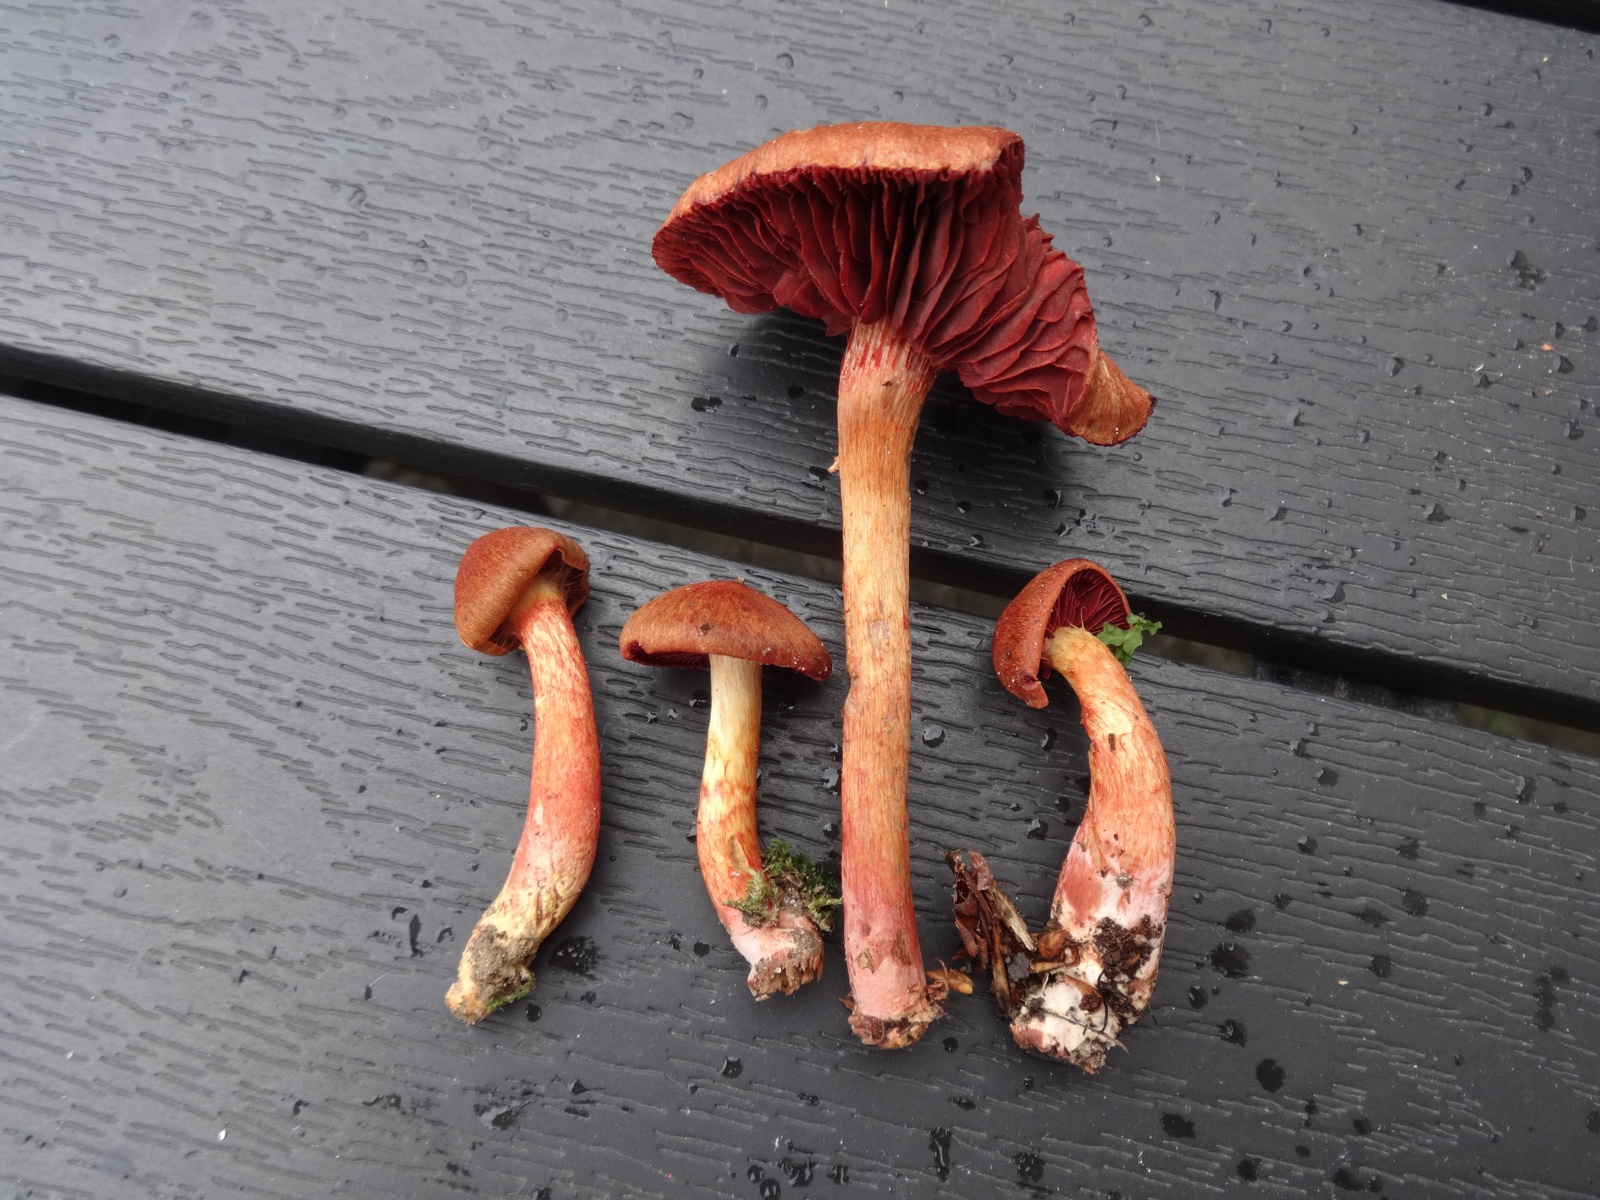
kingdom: Fungi
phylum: Basidiomycota
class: Agaricomycetes
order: Agaricales
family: Cortinariaceae
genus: Cortinarius
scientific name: Cortinarius
